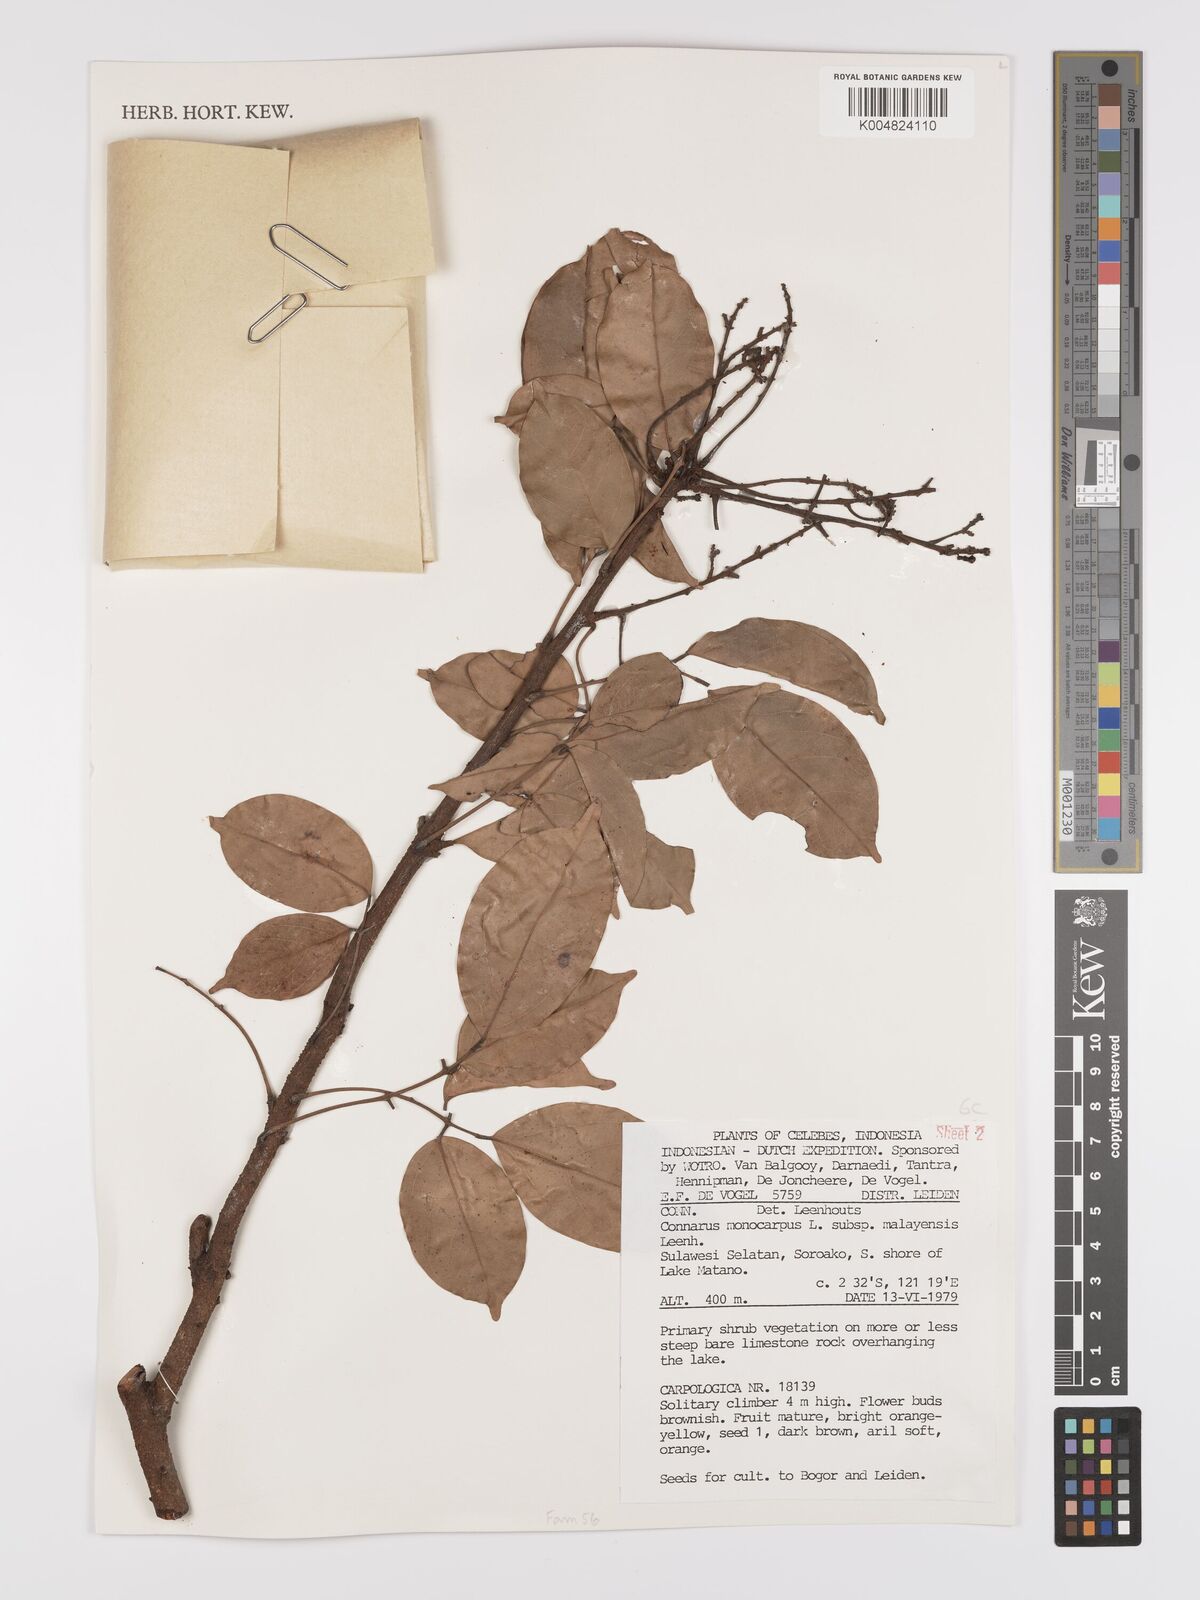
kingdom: Plantae
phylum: Tracheophyta
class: Magnoliopsida
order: Oxalidales
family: Connaraceae
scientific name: Connaraceae
